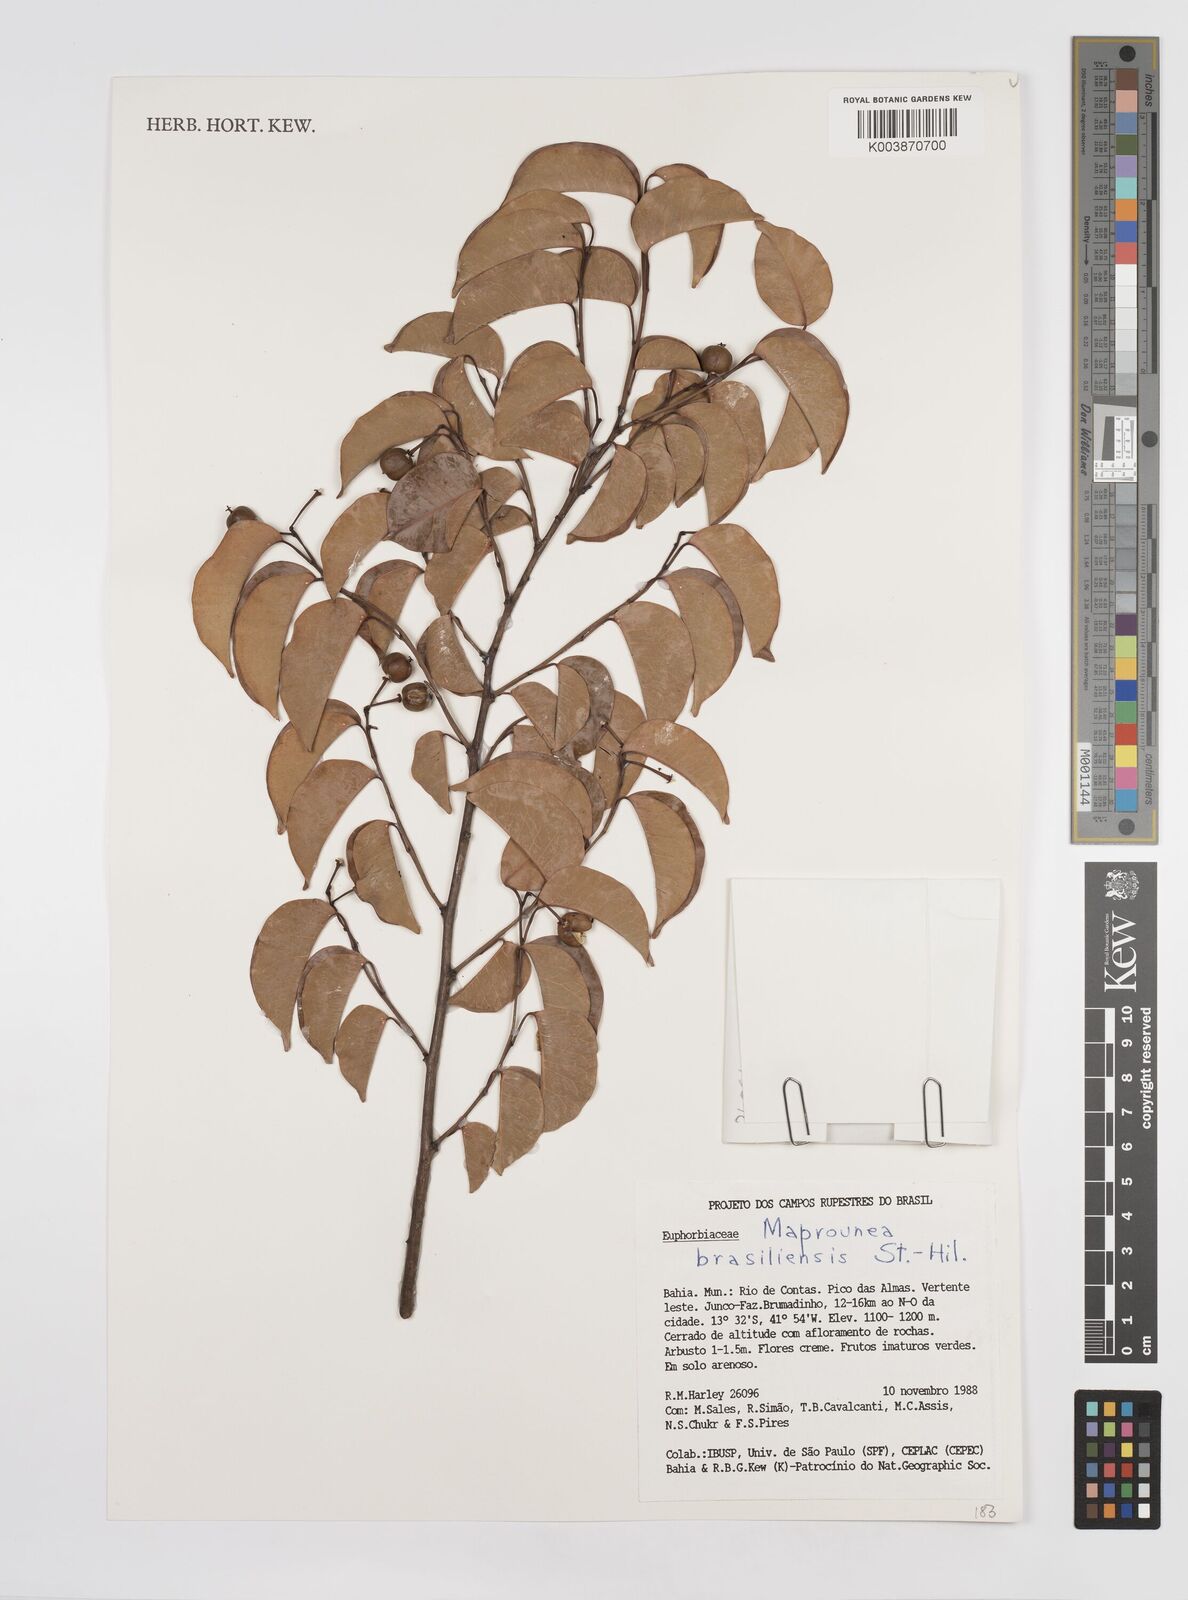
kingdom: Plantae
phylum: Tracheophyta
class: Magnoliopsida
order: Malpighiales
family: Euphorbiaceae
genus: Maprounea
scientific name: Maprounea brasiliensis
